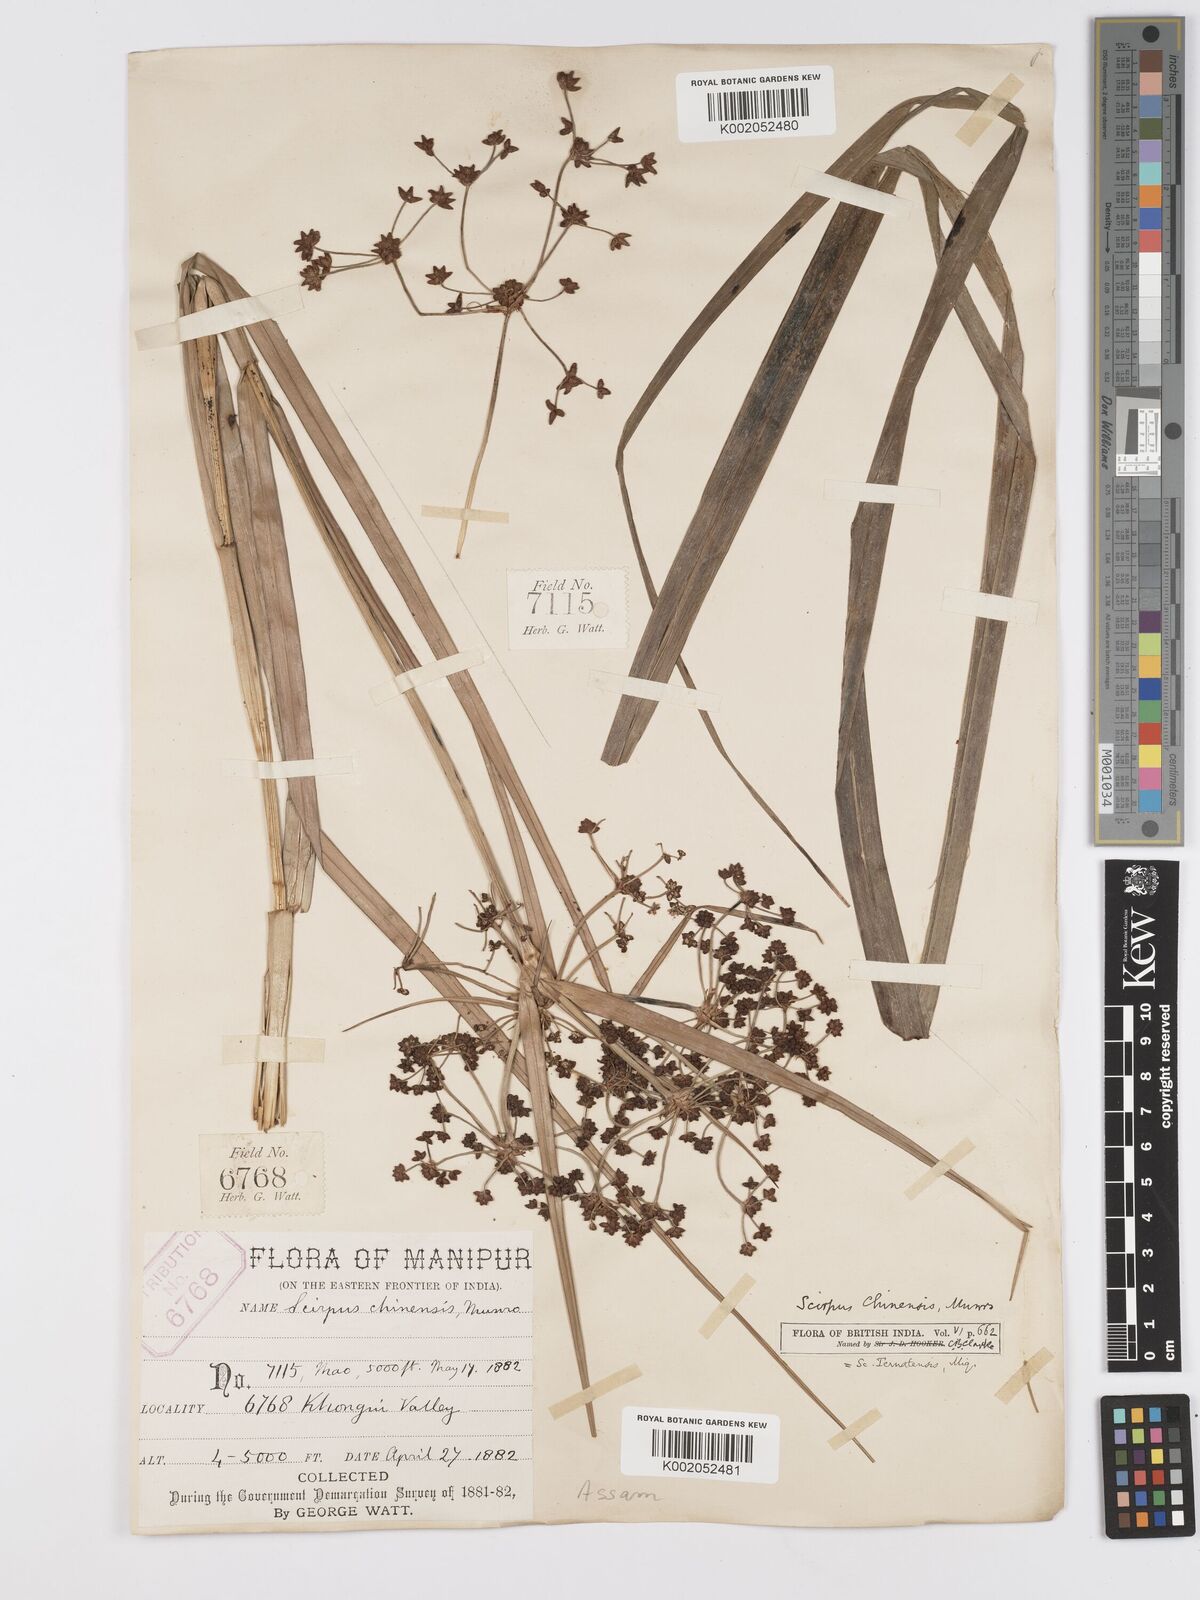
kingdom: Plantae
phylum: Tracheophyta
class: Liliopsida
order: Poales
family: Cyperaceae
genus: Scirpus
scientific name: Scirpus ternatanus
